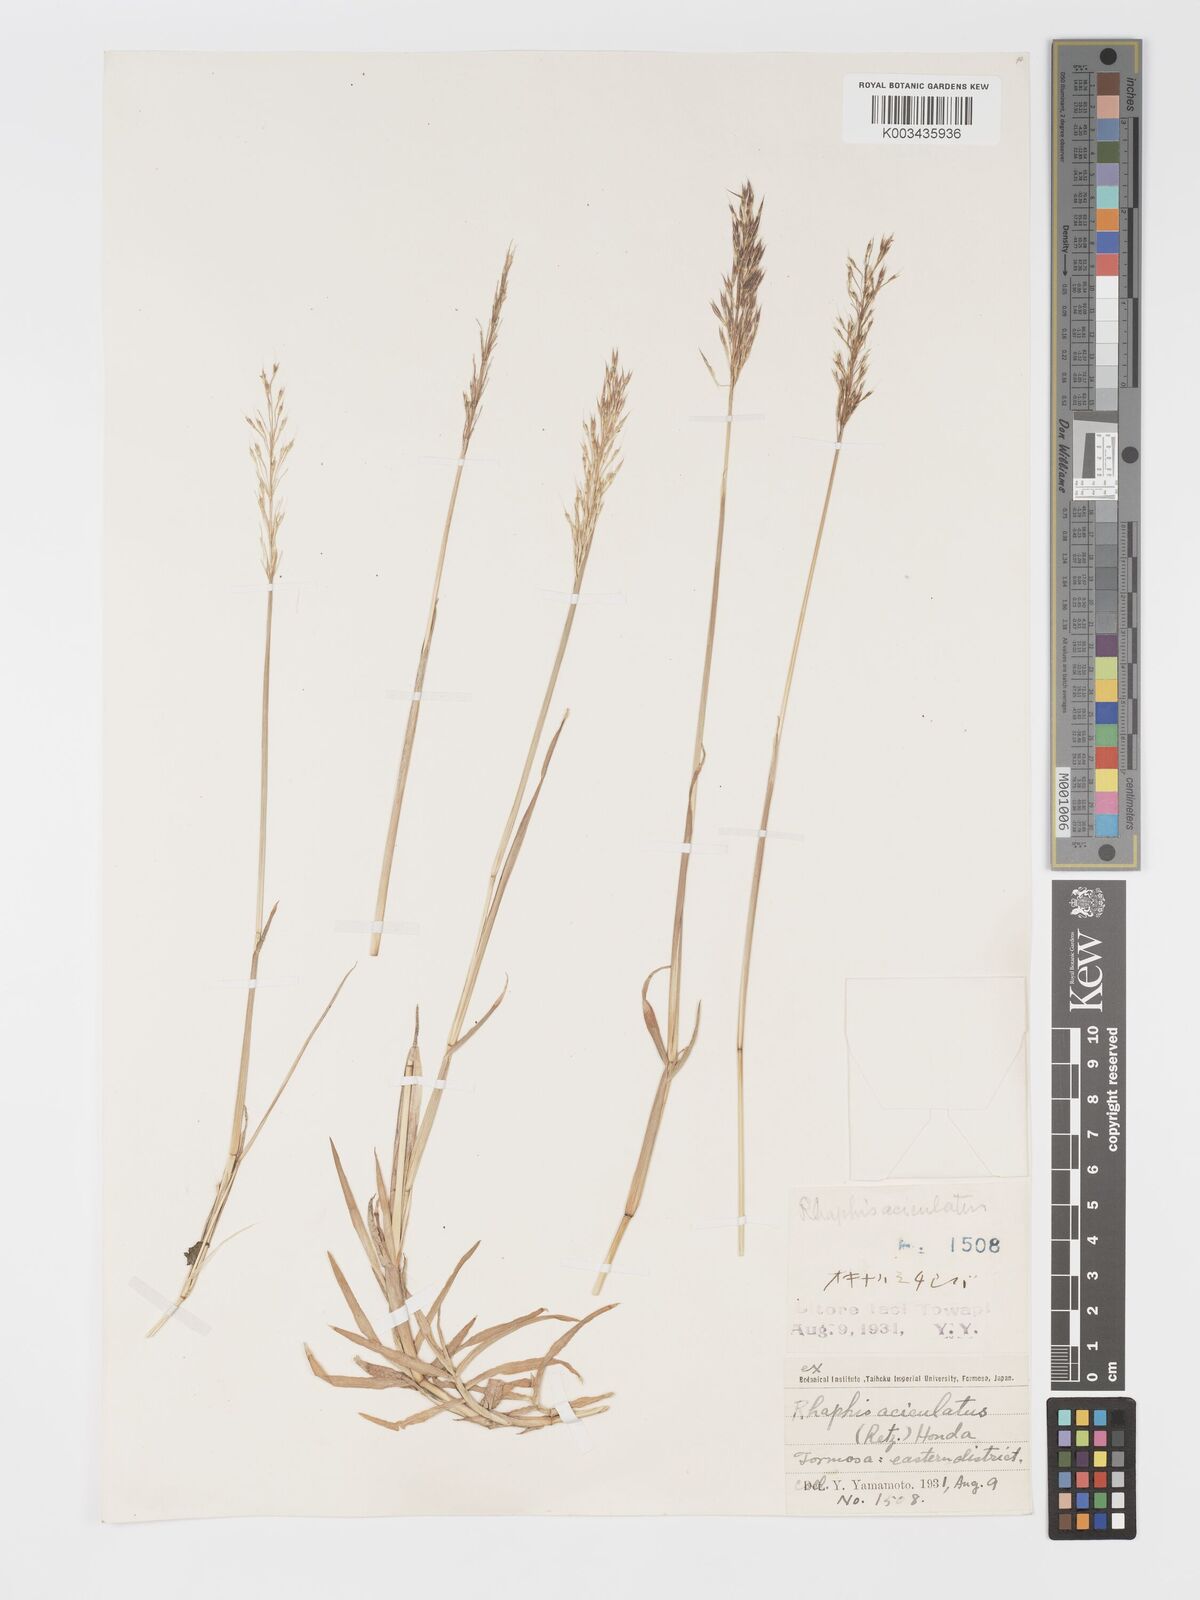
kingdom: Plantae
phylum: Tracheophyta
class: Liliopsida
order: Poales
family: Poaceae
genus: Chrysopogon
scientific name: Chrysopogon aciculatus
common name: Pilipiliula
